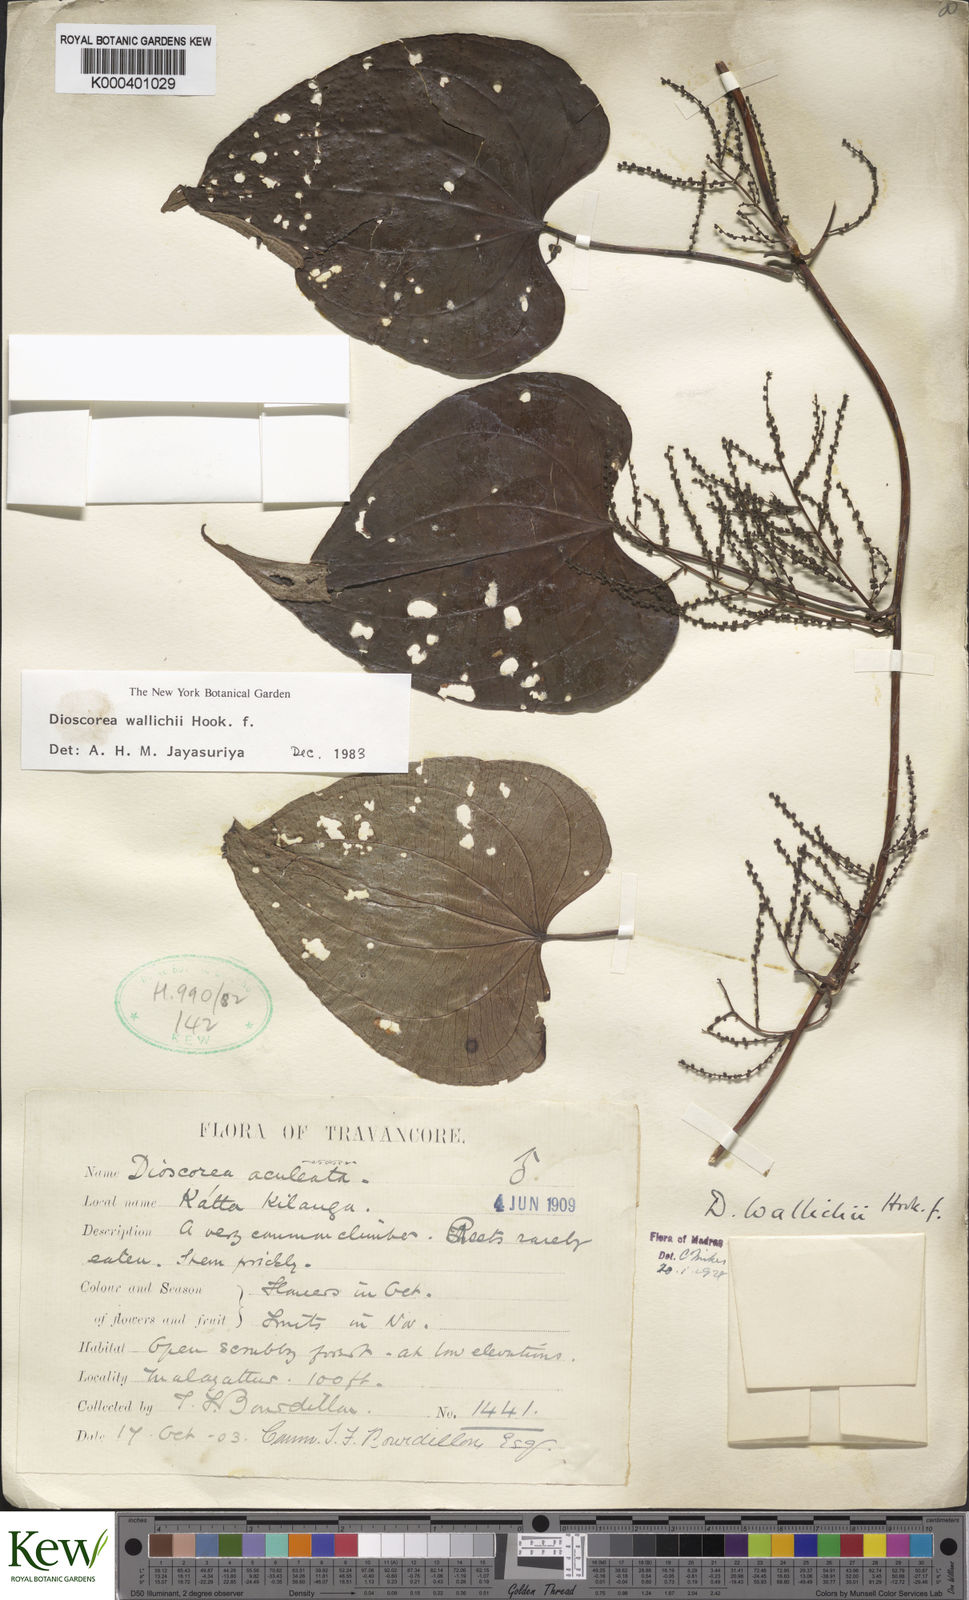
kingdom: Plantae
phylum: Tracheophyta
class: Liliopsida
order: Dioscoreales
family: Dioscoreaceae
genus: Dioscorea
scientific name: Dioscorea wallichii
